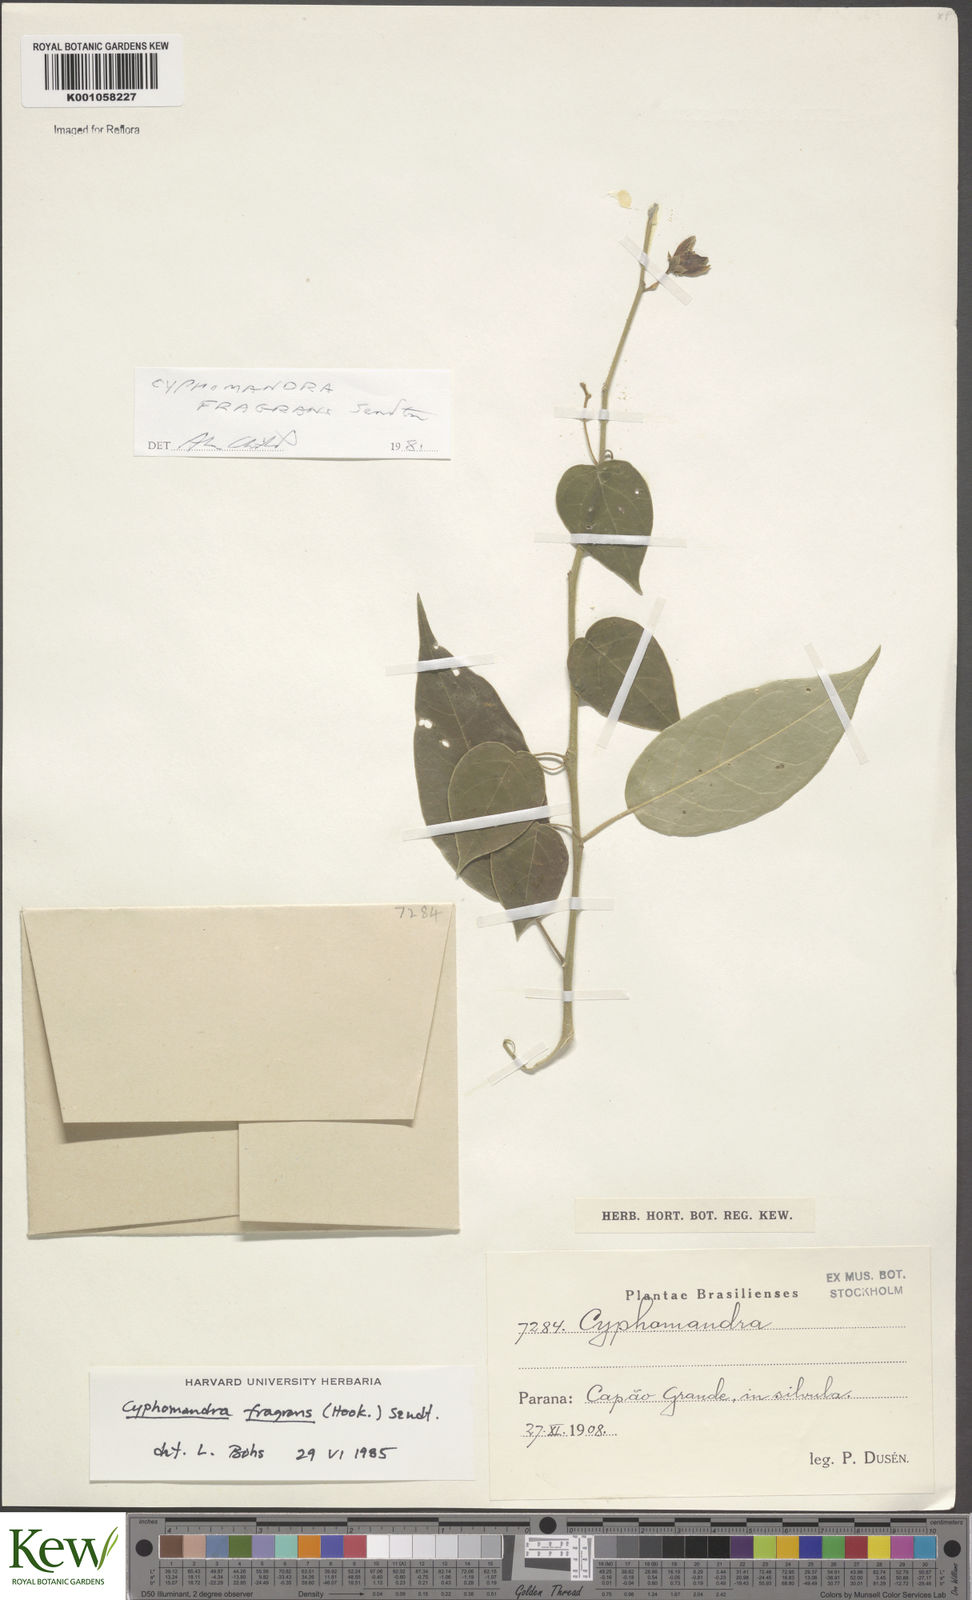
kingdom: Plantae
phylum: Tracheophyta
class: Magnoliopsida
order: Solanales
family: Solanaceae
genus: Solanum
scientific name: Solanum diploconos
